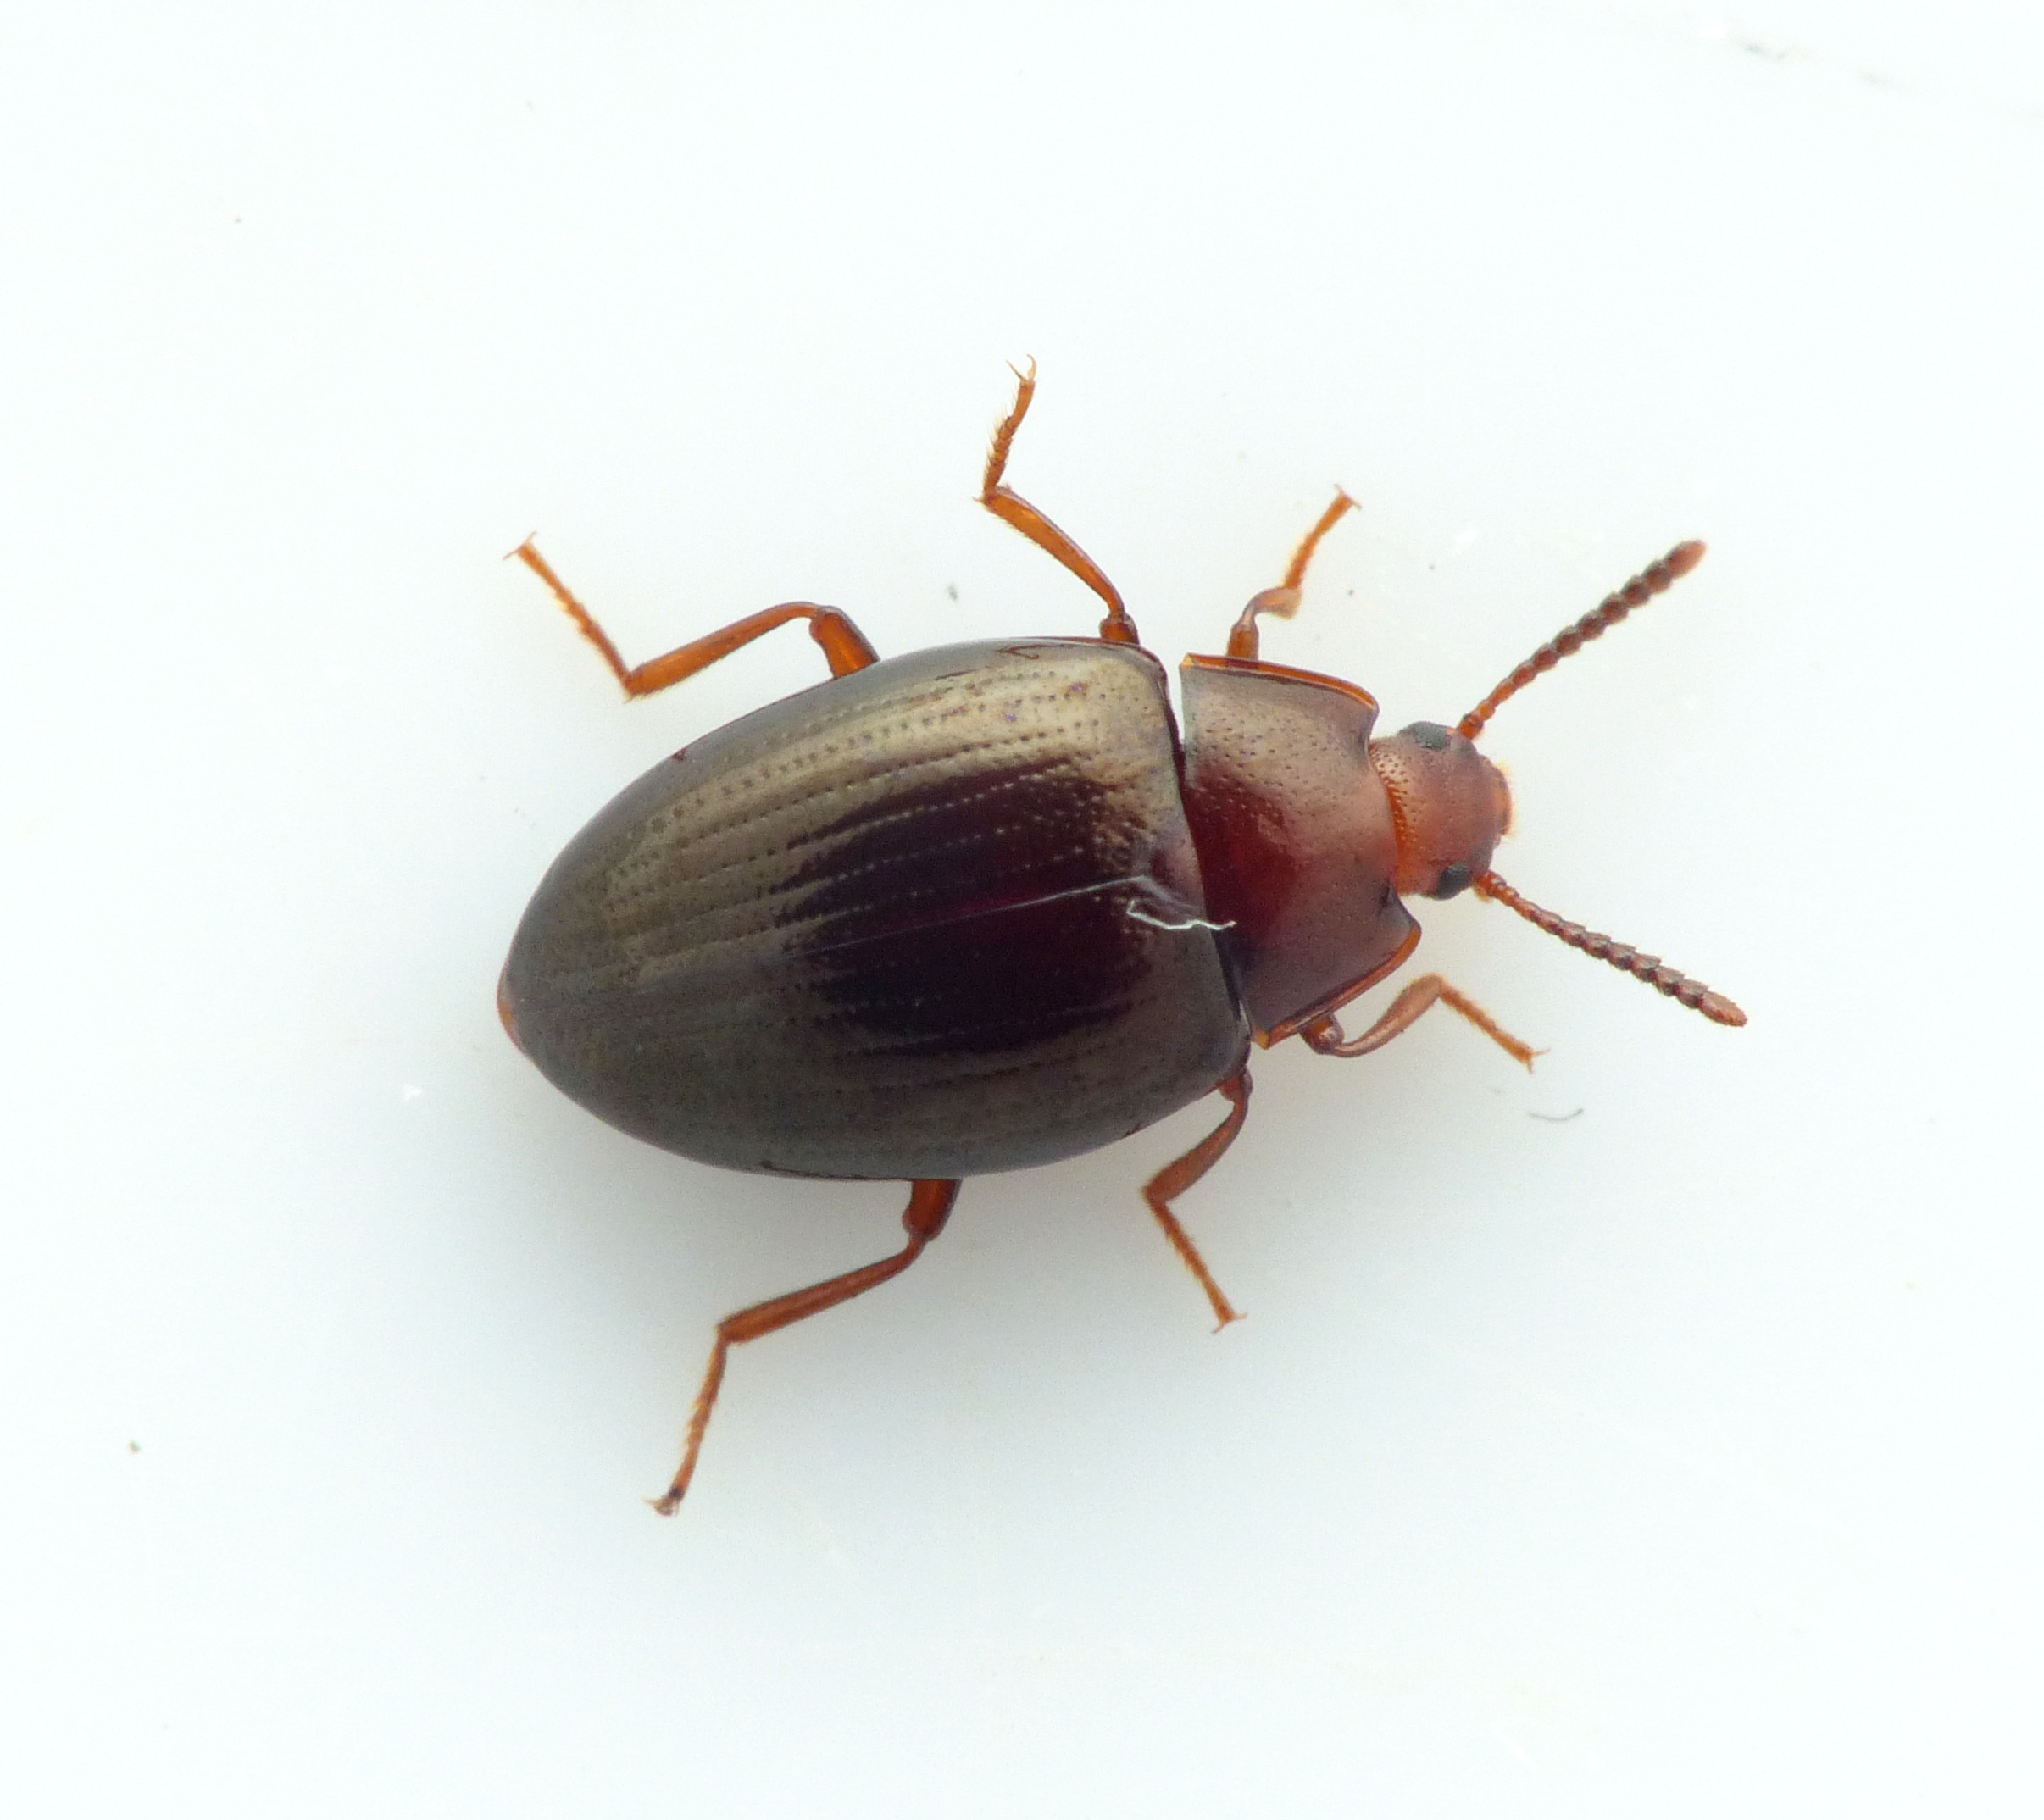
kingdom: Animalia
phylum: Arthropoda
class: Insecta
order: Coleoptera
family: Tenebrionidae
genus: Blapstinus
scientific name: Blapstinus metallicus
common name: Metalskyggebille
